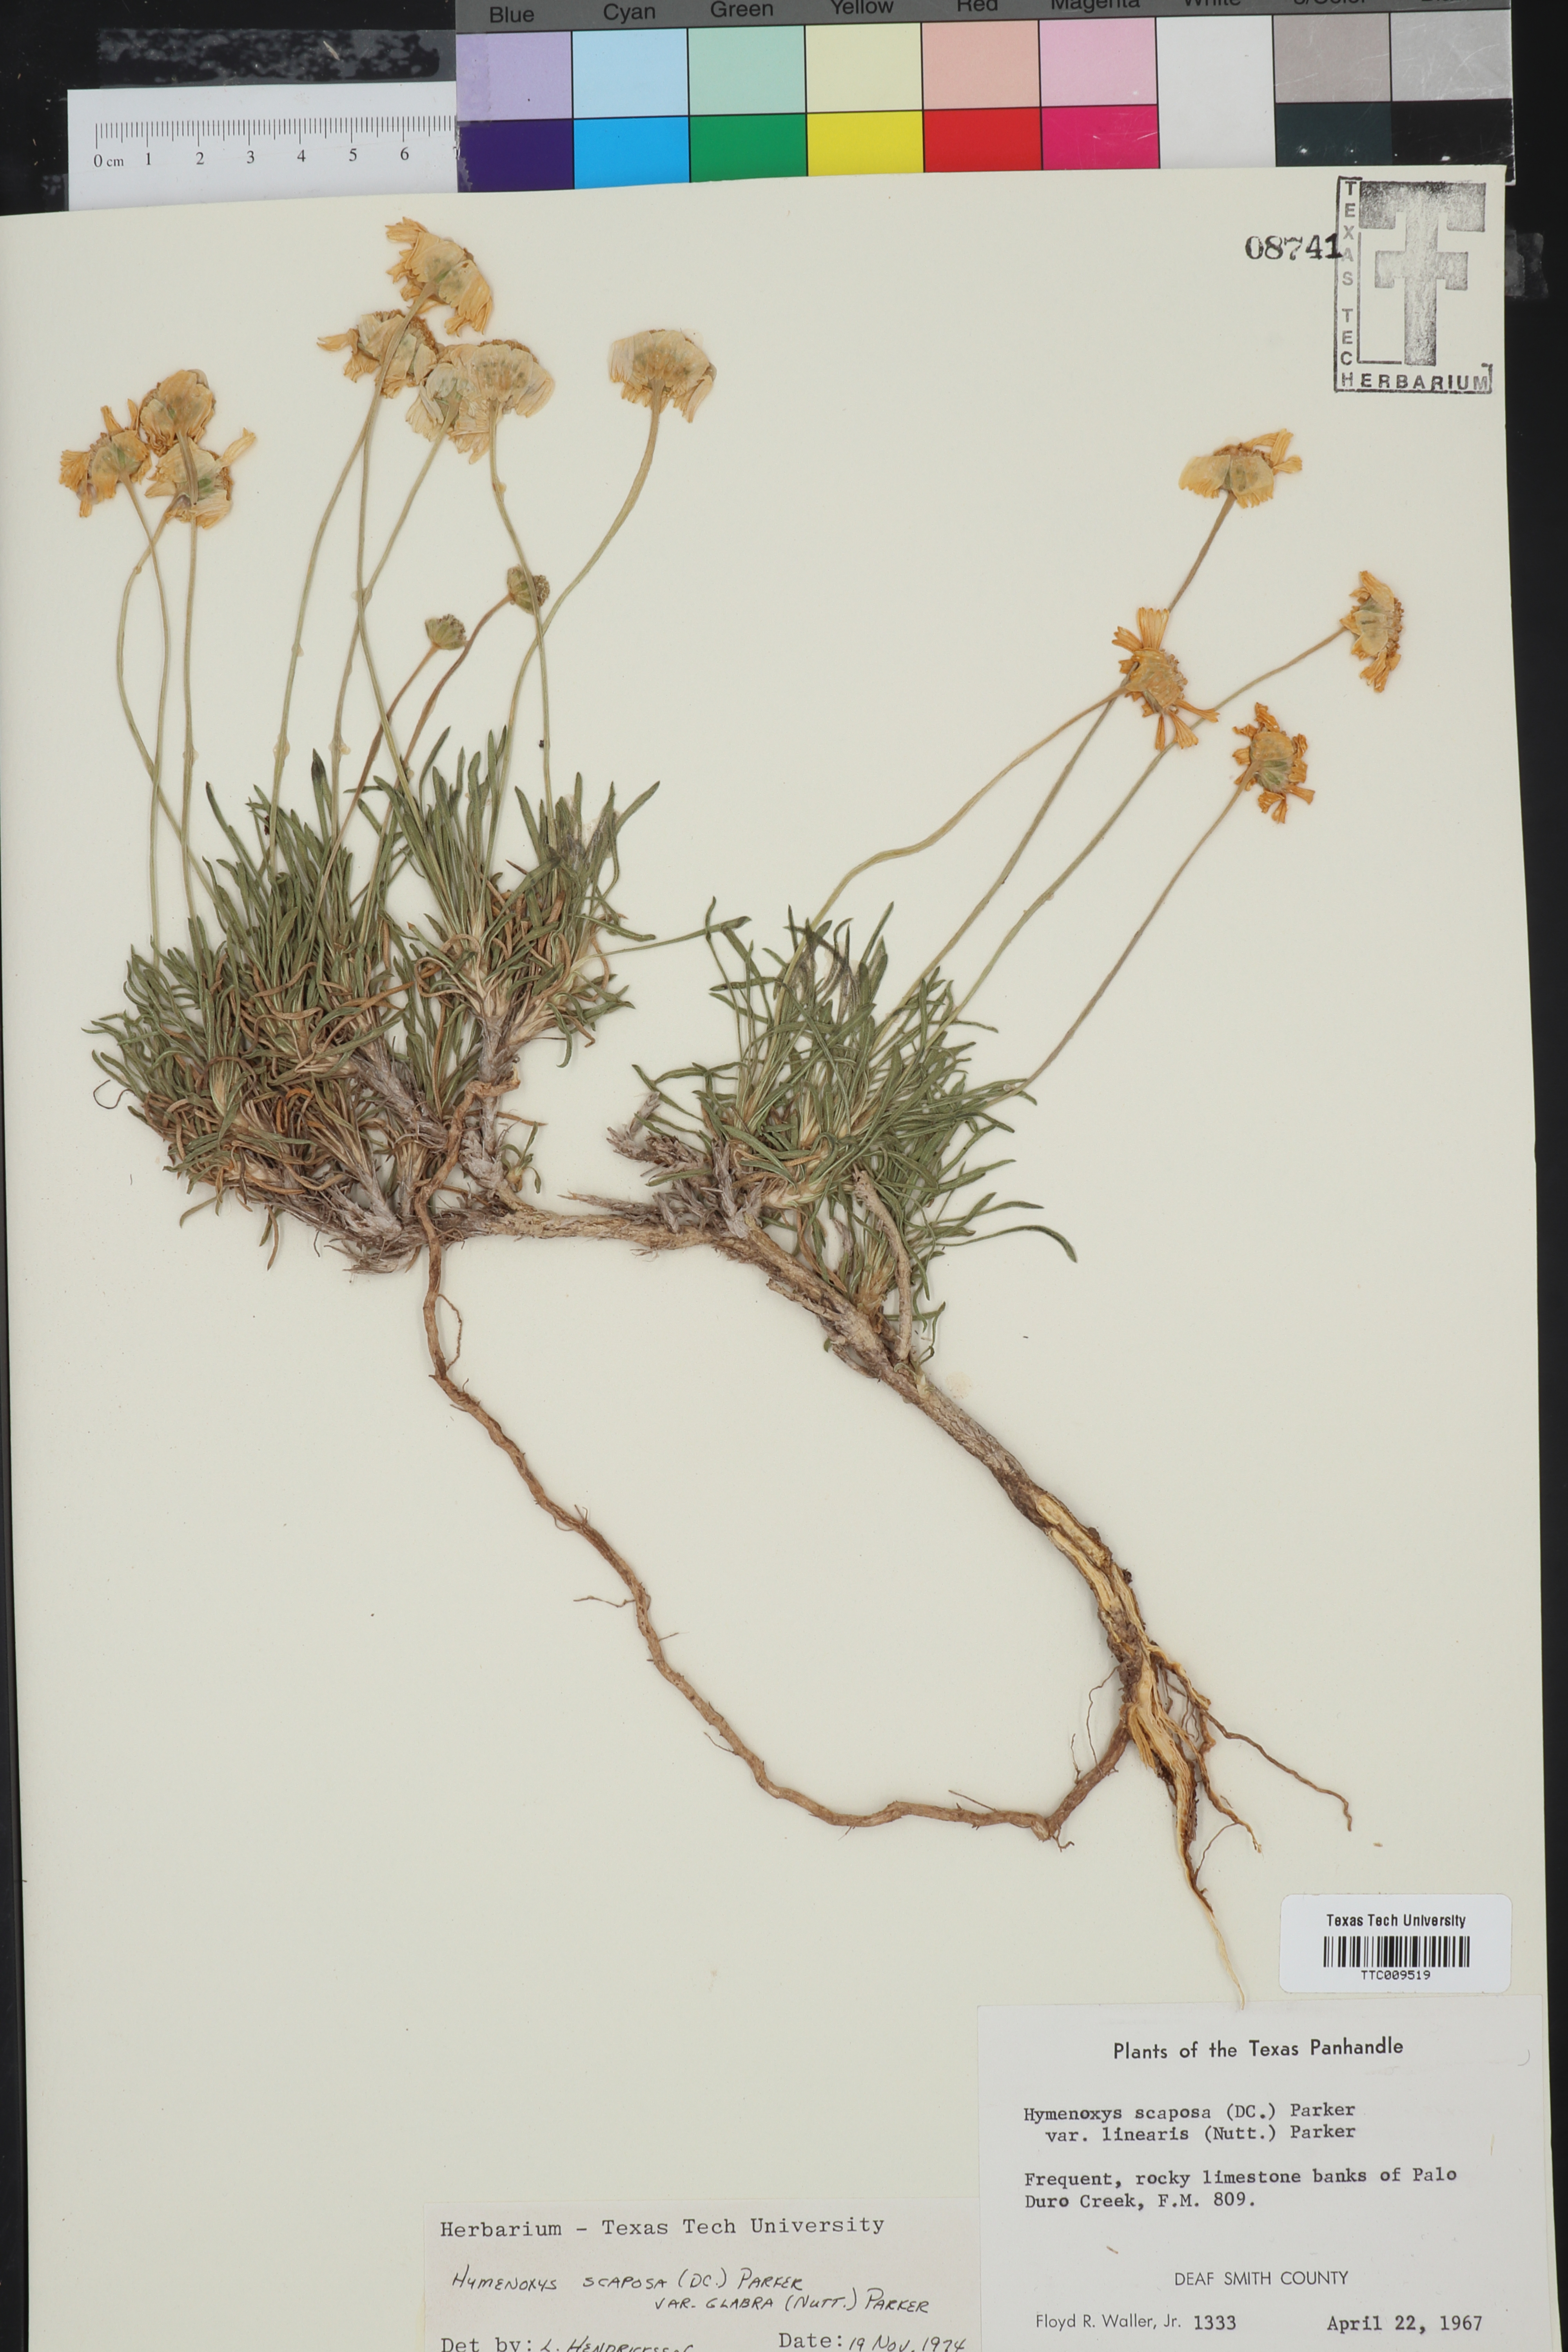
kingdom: Plantae
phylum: Tracheophyta
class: Magnoliopsida
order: Asterales
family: Asteraceae
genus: Tetraneuris
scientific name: Tetraneuris scaposa
